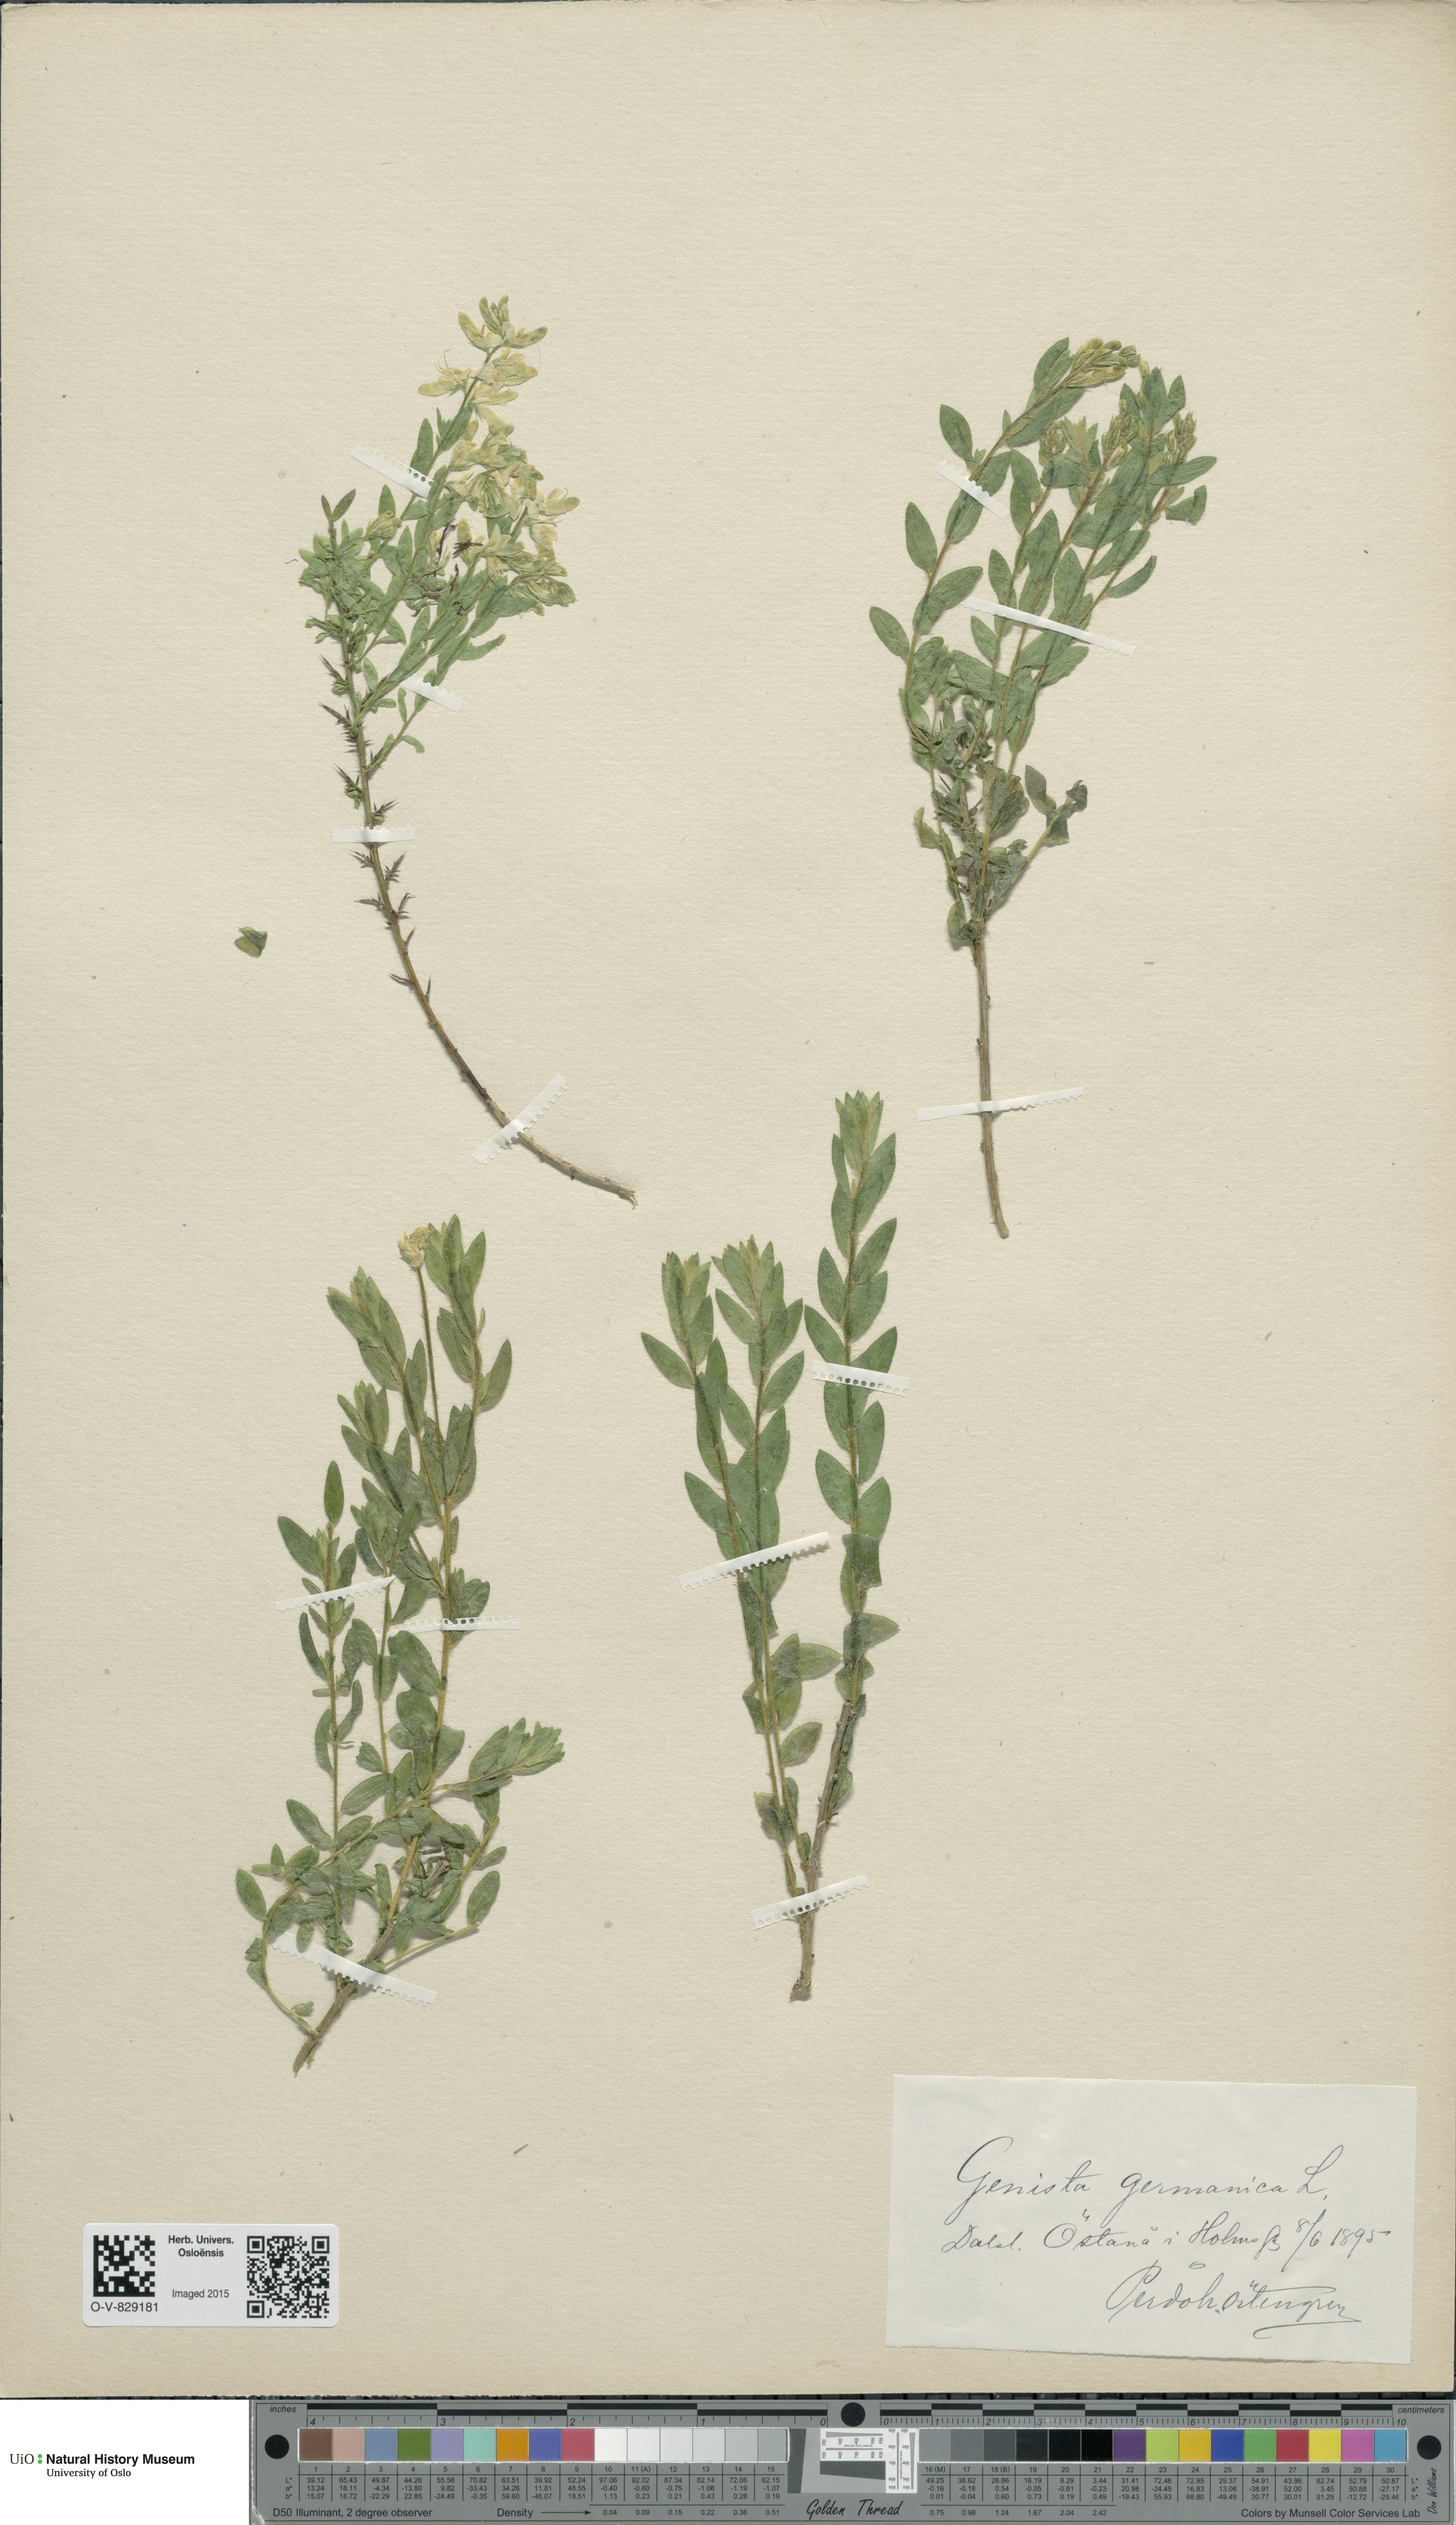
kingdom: Plantae
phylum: Tracheophyta
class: Magnoliopsida
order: Fabales
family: Fabaceae
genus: Genista
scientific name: Genista germanica
